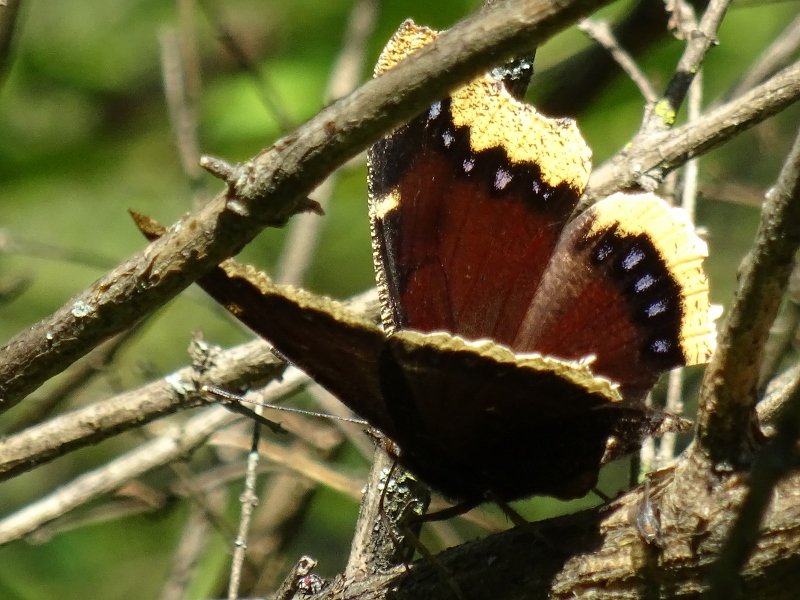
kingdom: Animalia
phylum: Arthropoda
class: Insecta
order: Lepidoptera
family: Nymphalidae
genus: Nymphalis
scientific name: Nymphalis antiopa
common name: Mourning Cloak
